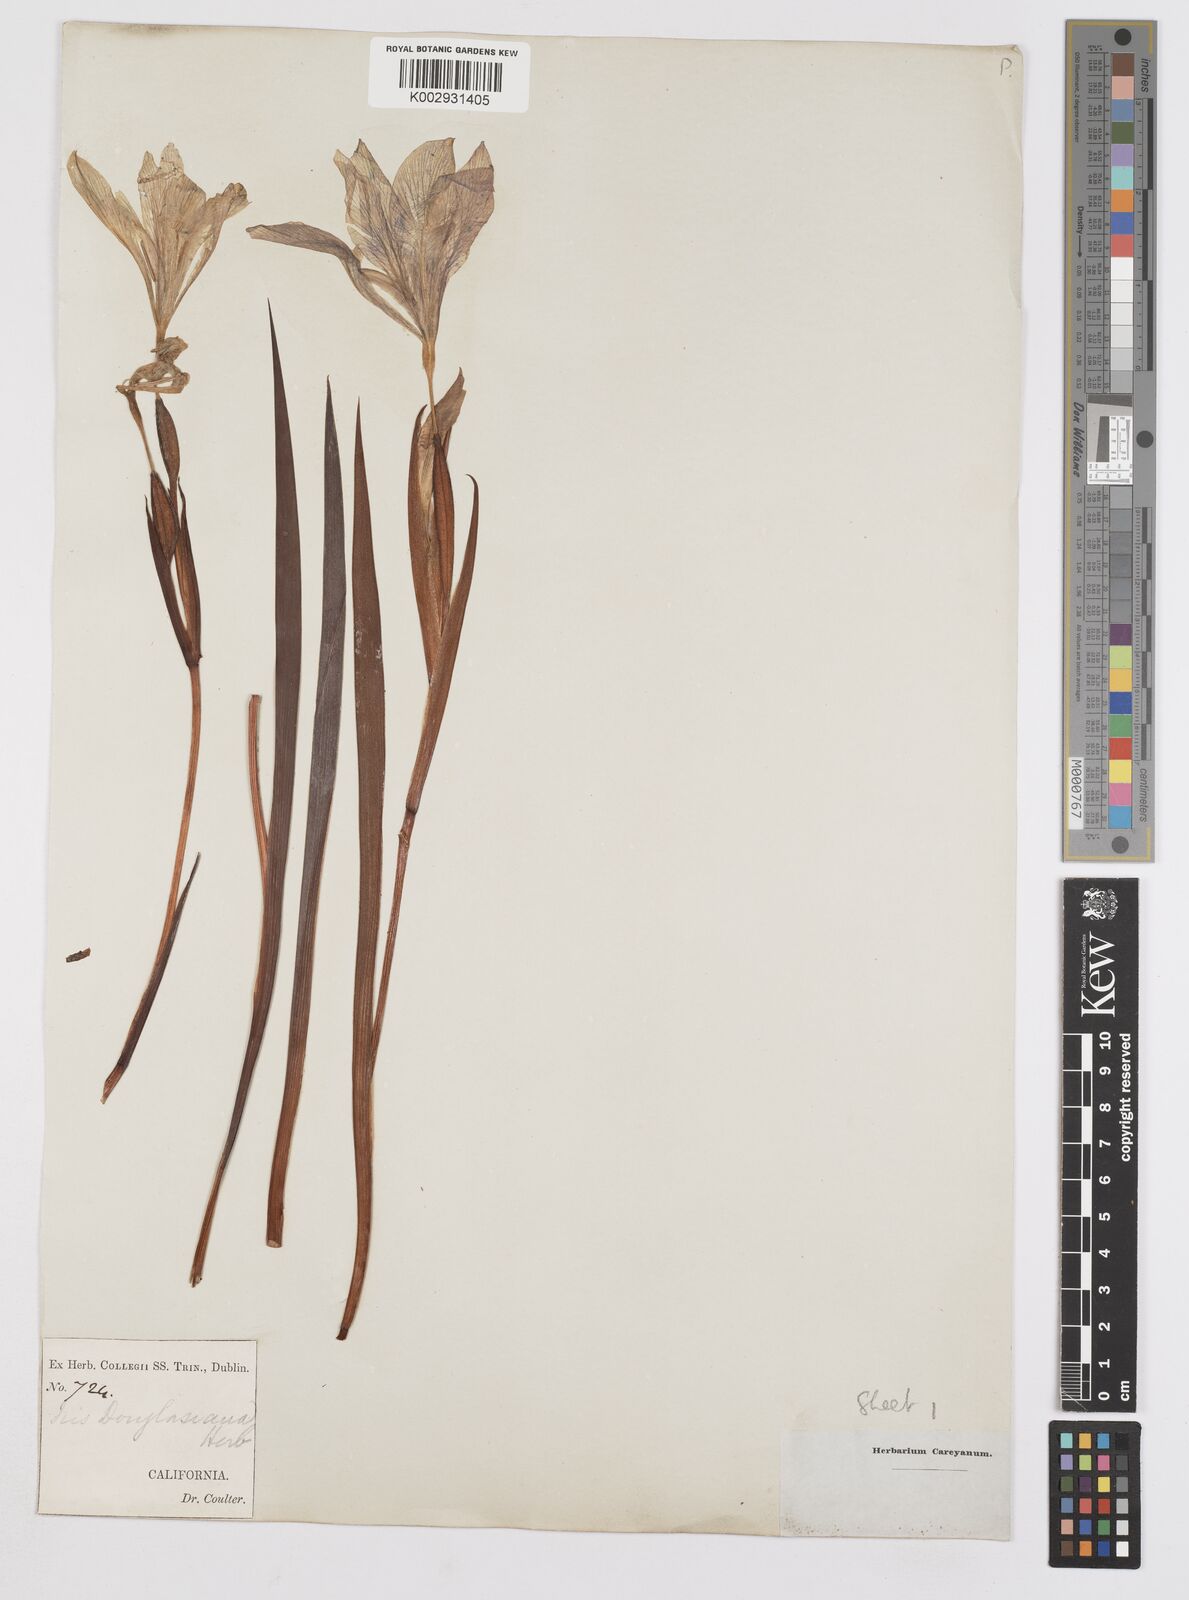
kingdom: Plantae
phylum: Tracheophyta
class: Liliopsida
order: Asparagales
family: Iridaceae
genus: Iris
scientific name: Iris douglasiana
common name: Marin iris
